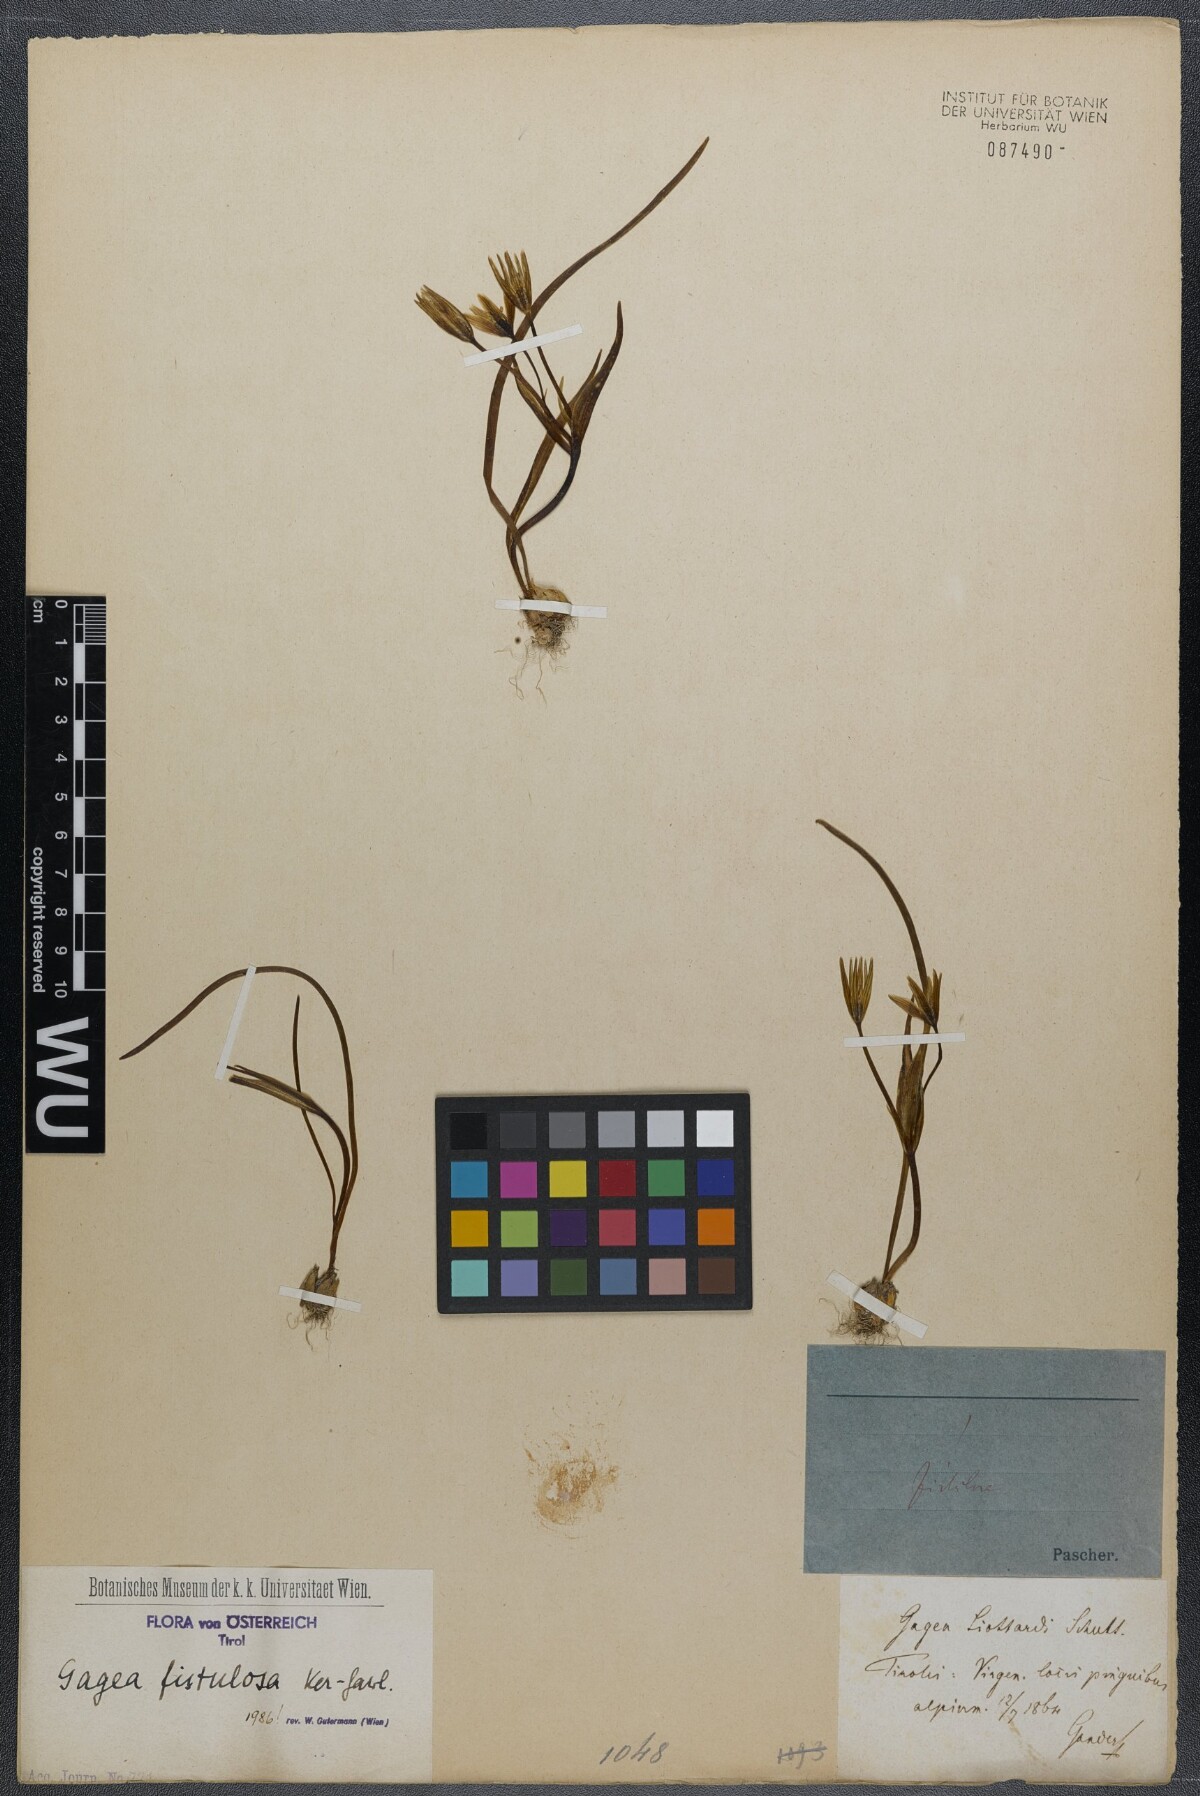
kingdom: Plantae
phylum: Tracheophyta
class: Liliopsida
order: Liliales
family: Liliaceae
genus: Gagea
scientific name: Gagea bohemica
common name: Early star-of-bethlehem
